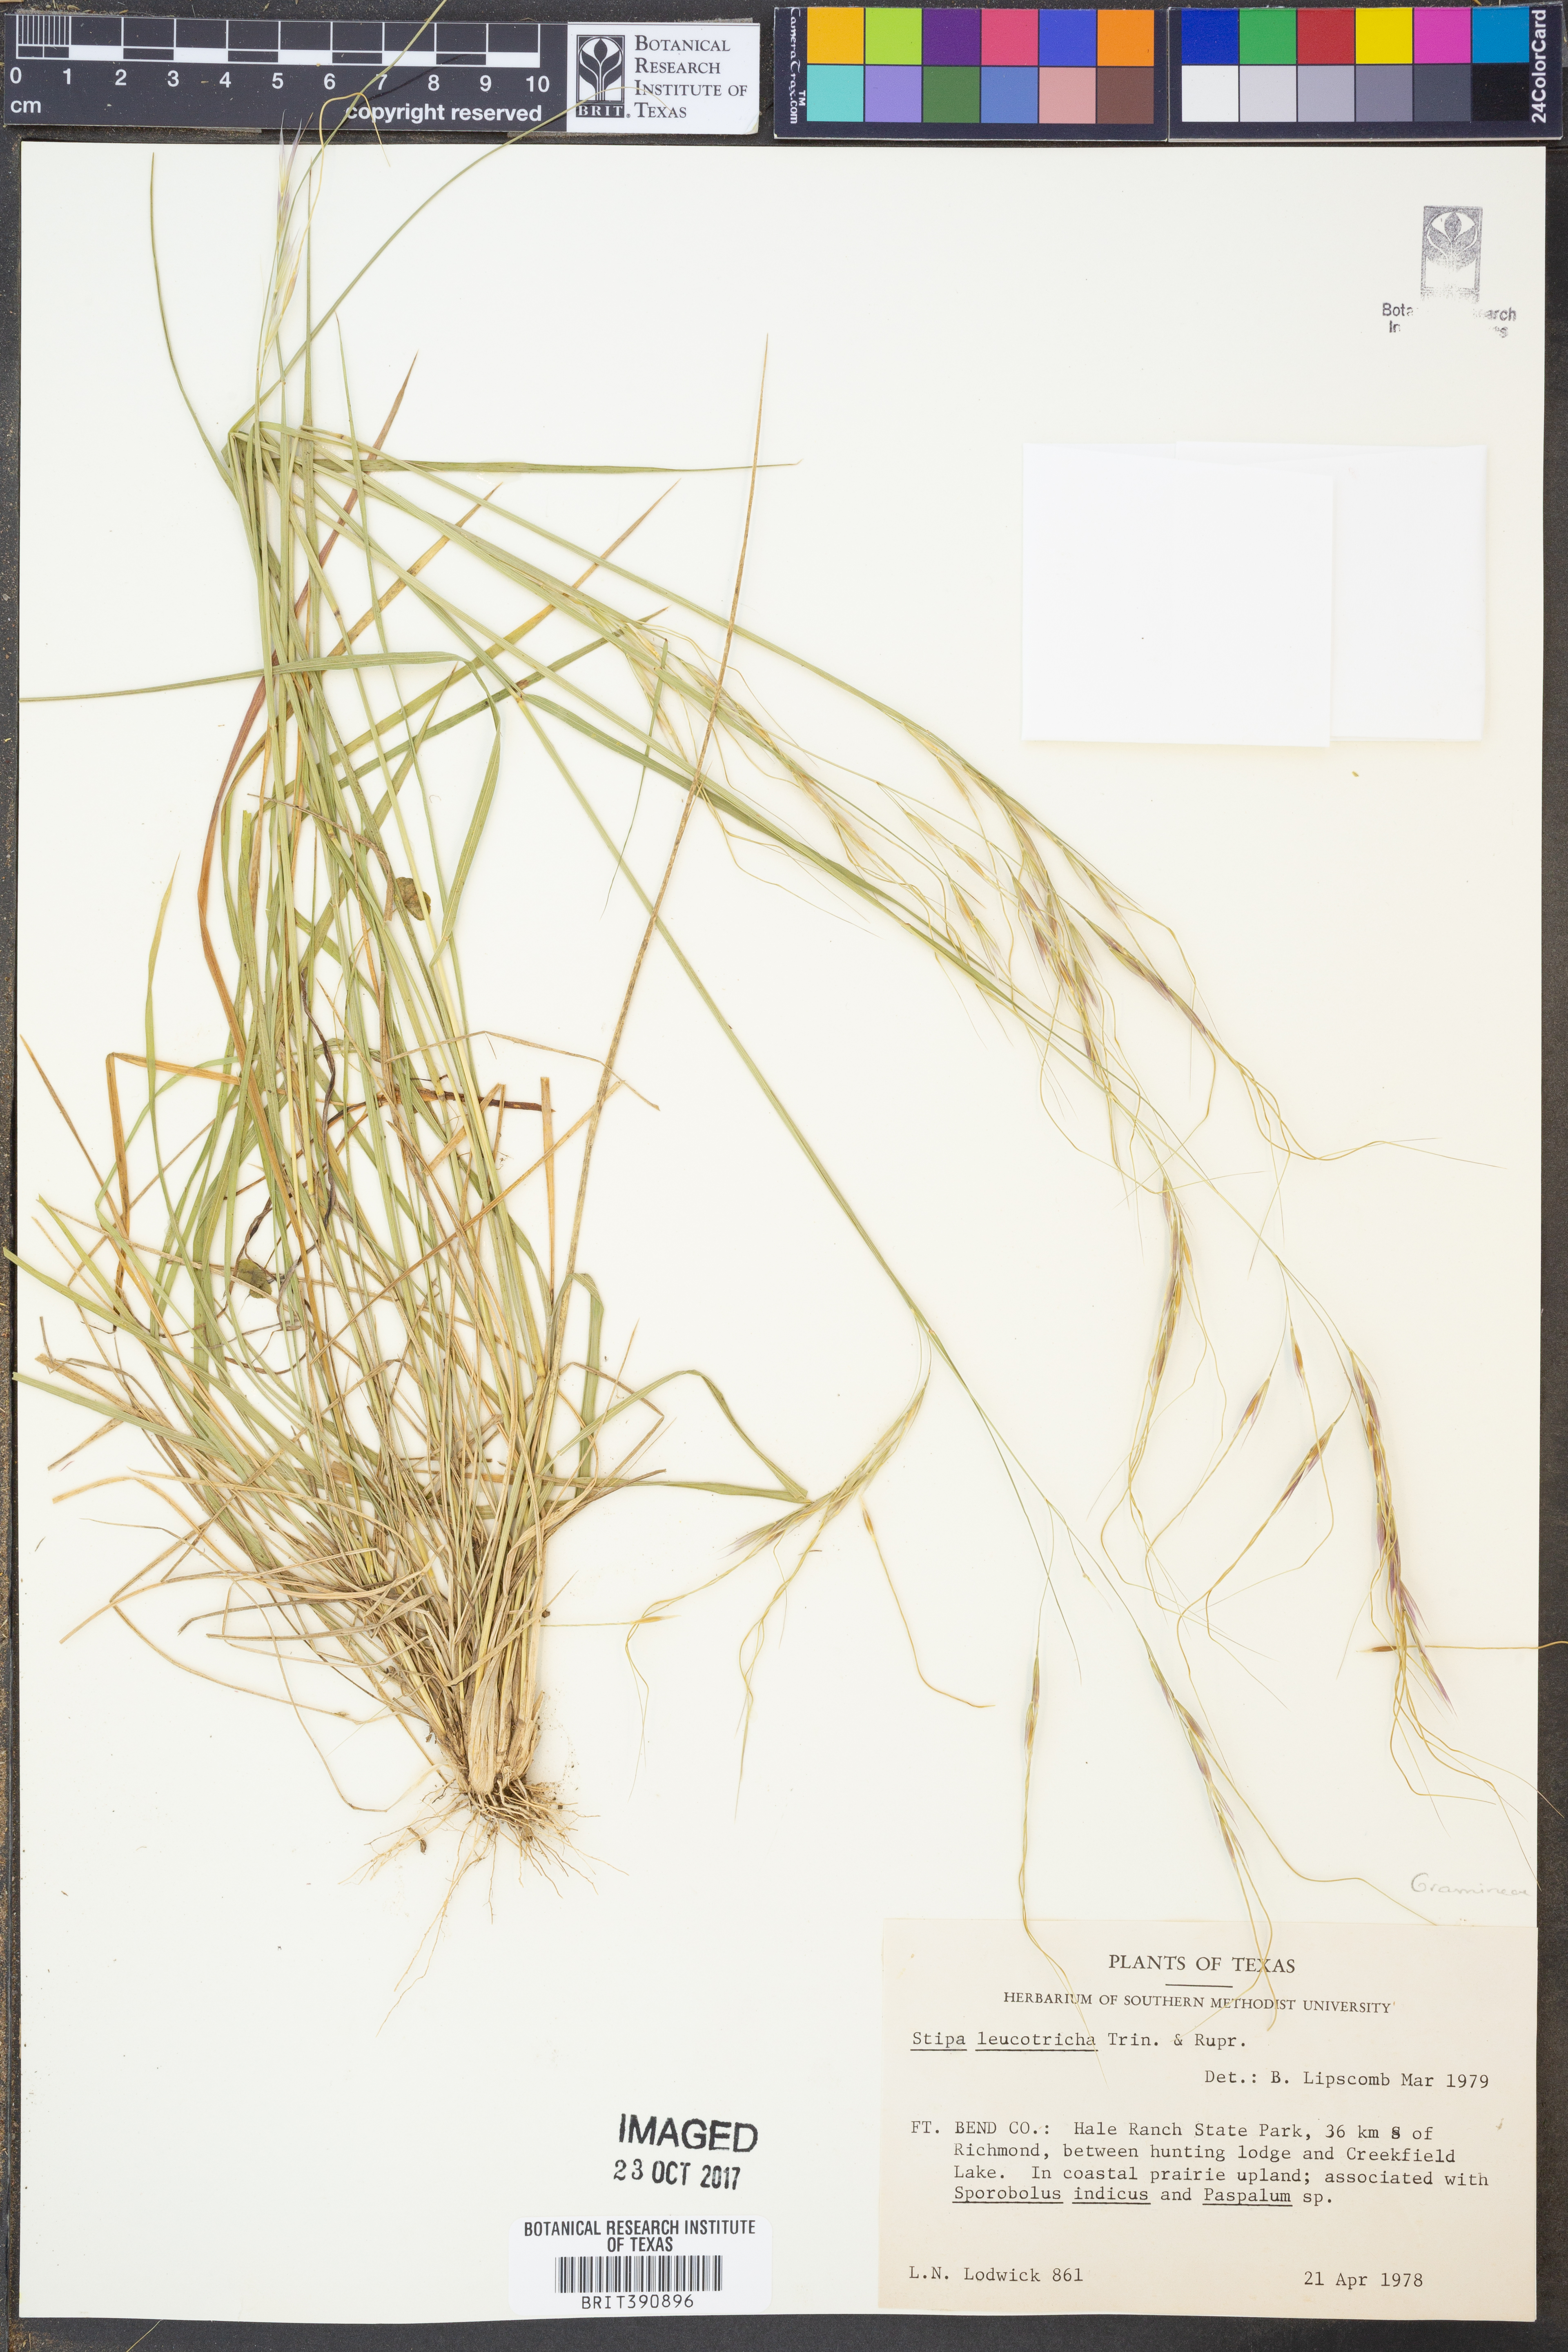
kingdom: Plantae
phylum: Tracheophyta
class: Liliopsida
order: Poales
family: Poaceae
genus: Nassella
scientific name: Nassella leucotricha
